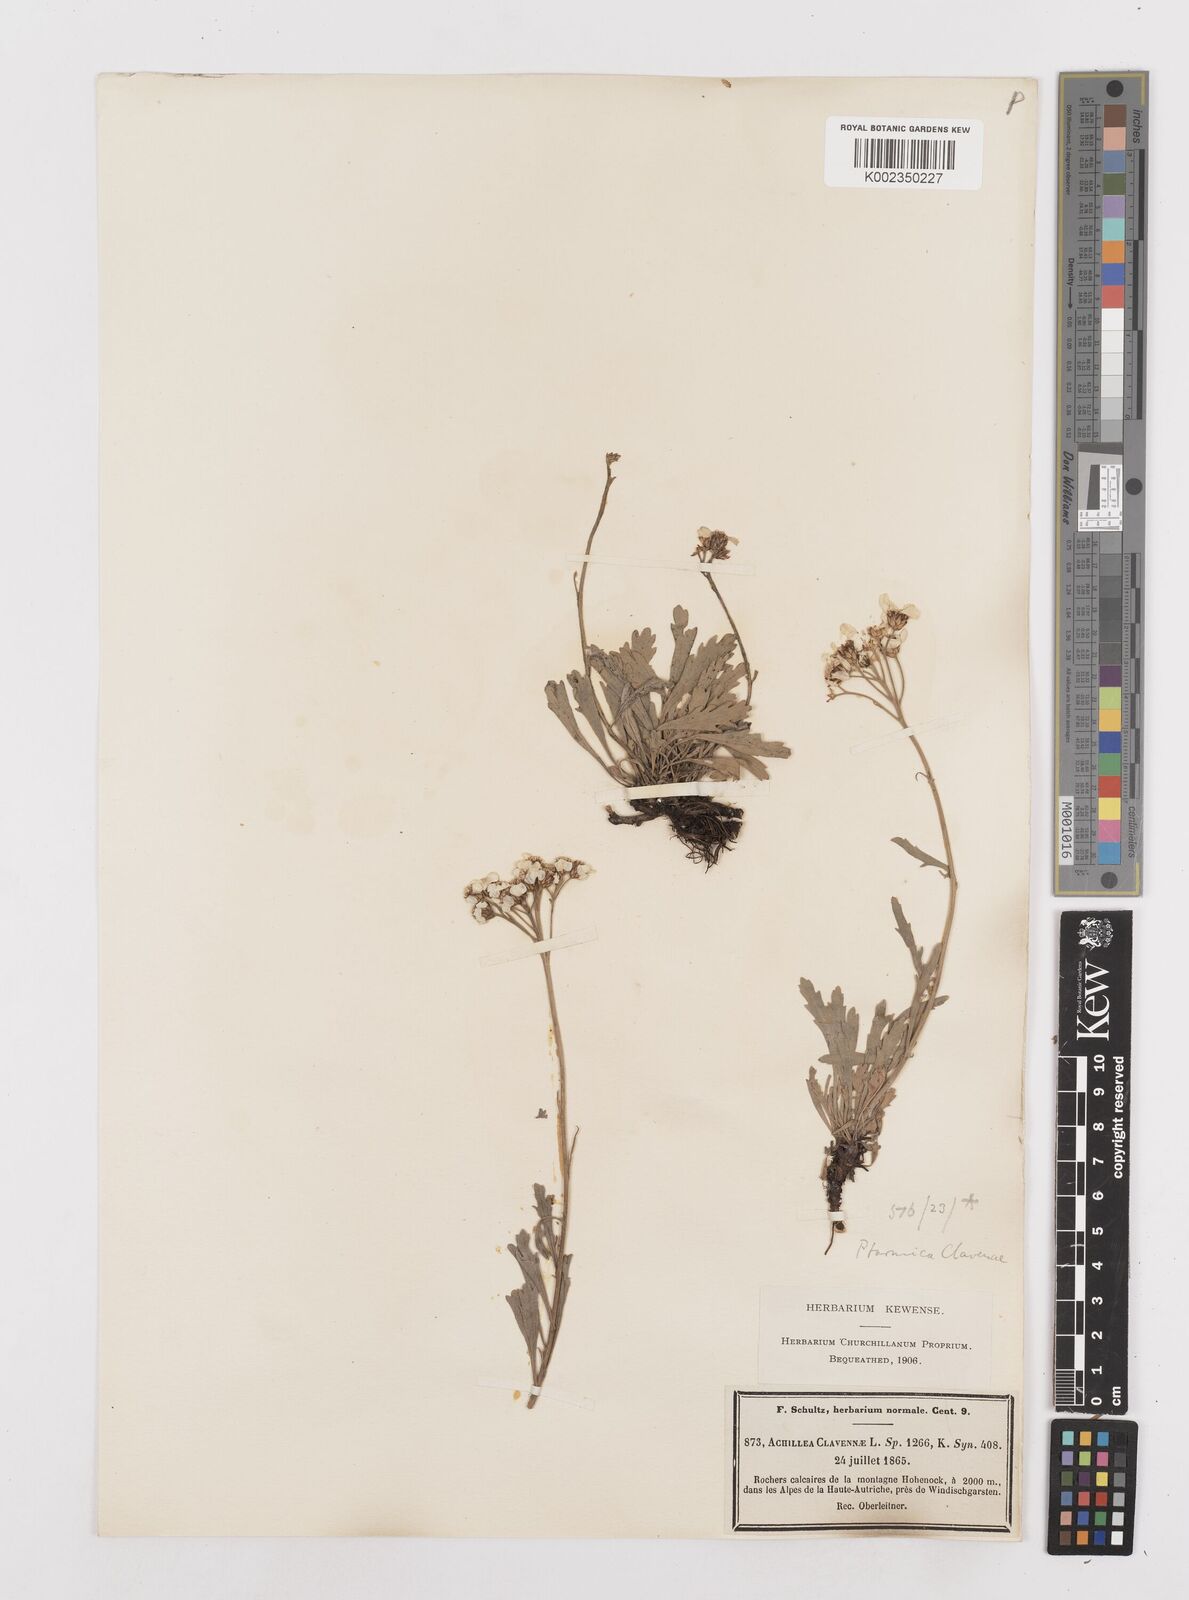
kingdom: Plantae
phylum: Tracheophyta
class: Magnoliopsida
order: Asterales
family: Asteraceae
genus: Achillea
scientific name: Achillea clavennae
